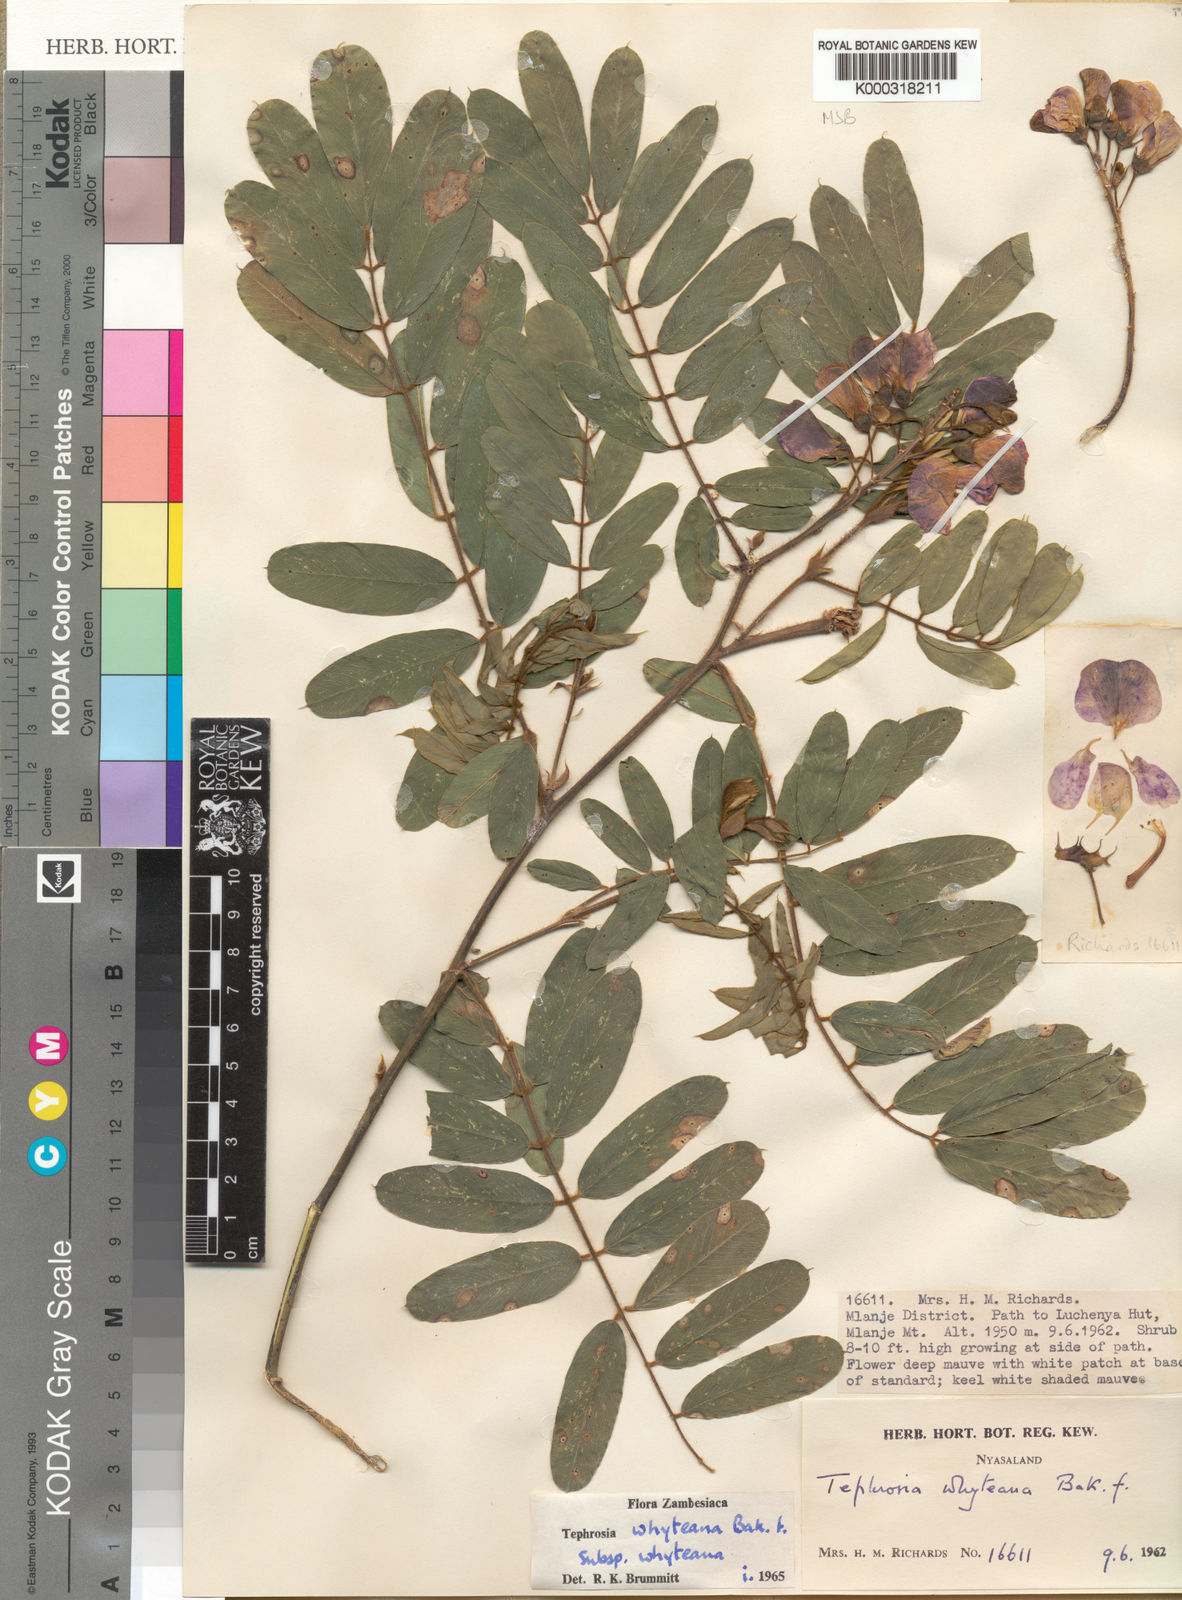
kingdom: Plantae
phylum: Tracheophyta
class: Magnoliopsida
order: Fabales
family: Fabaceae
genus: Tephrosia
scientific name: Tephrosia whyteana
